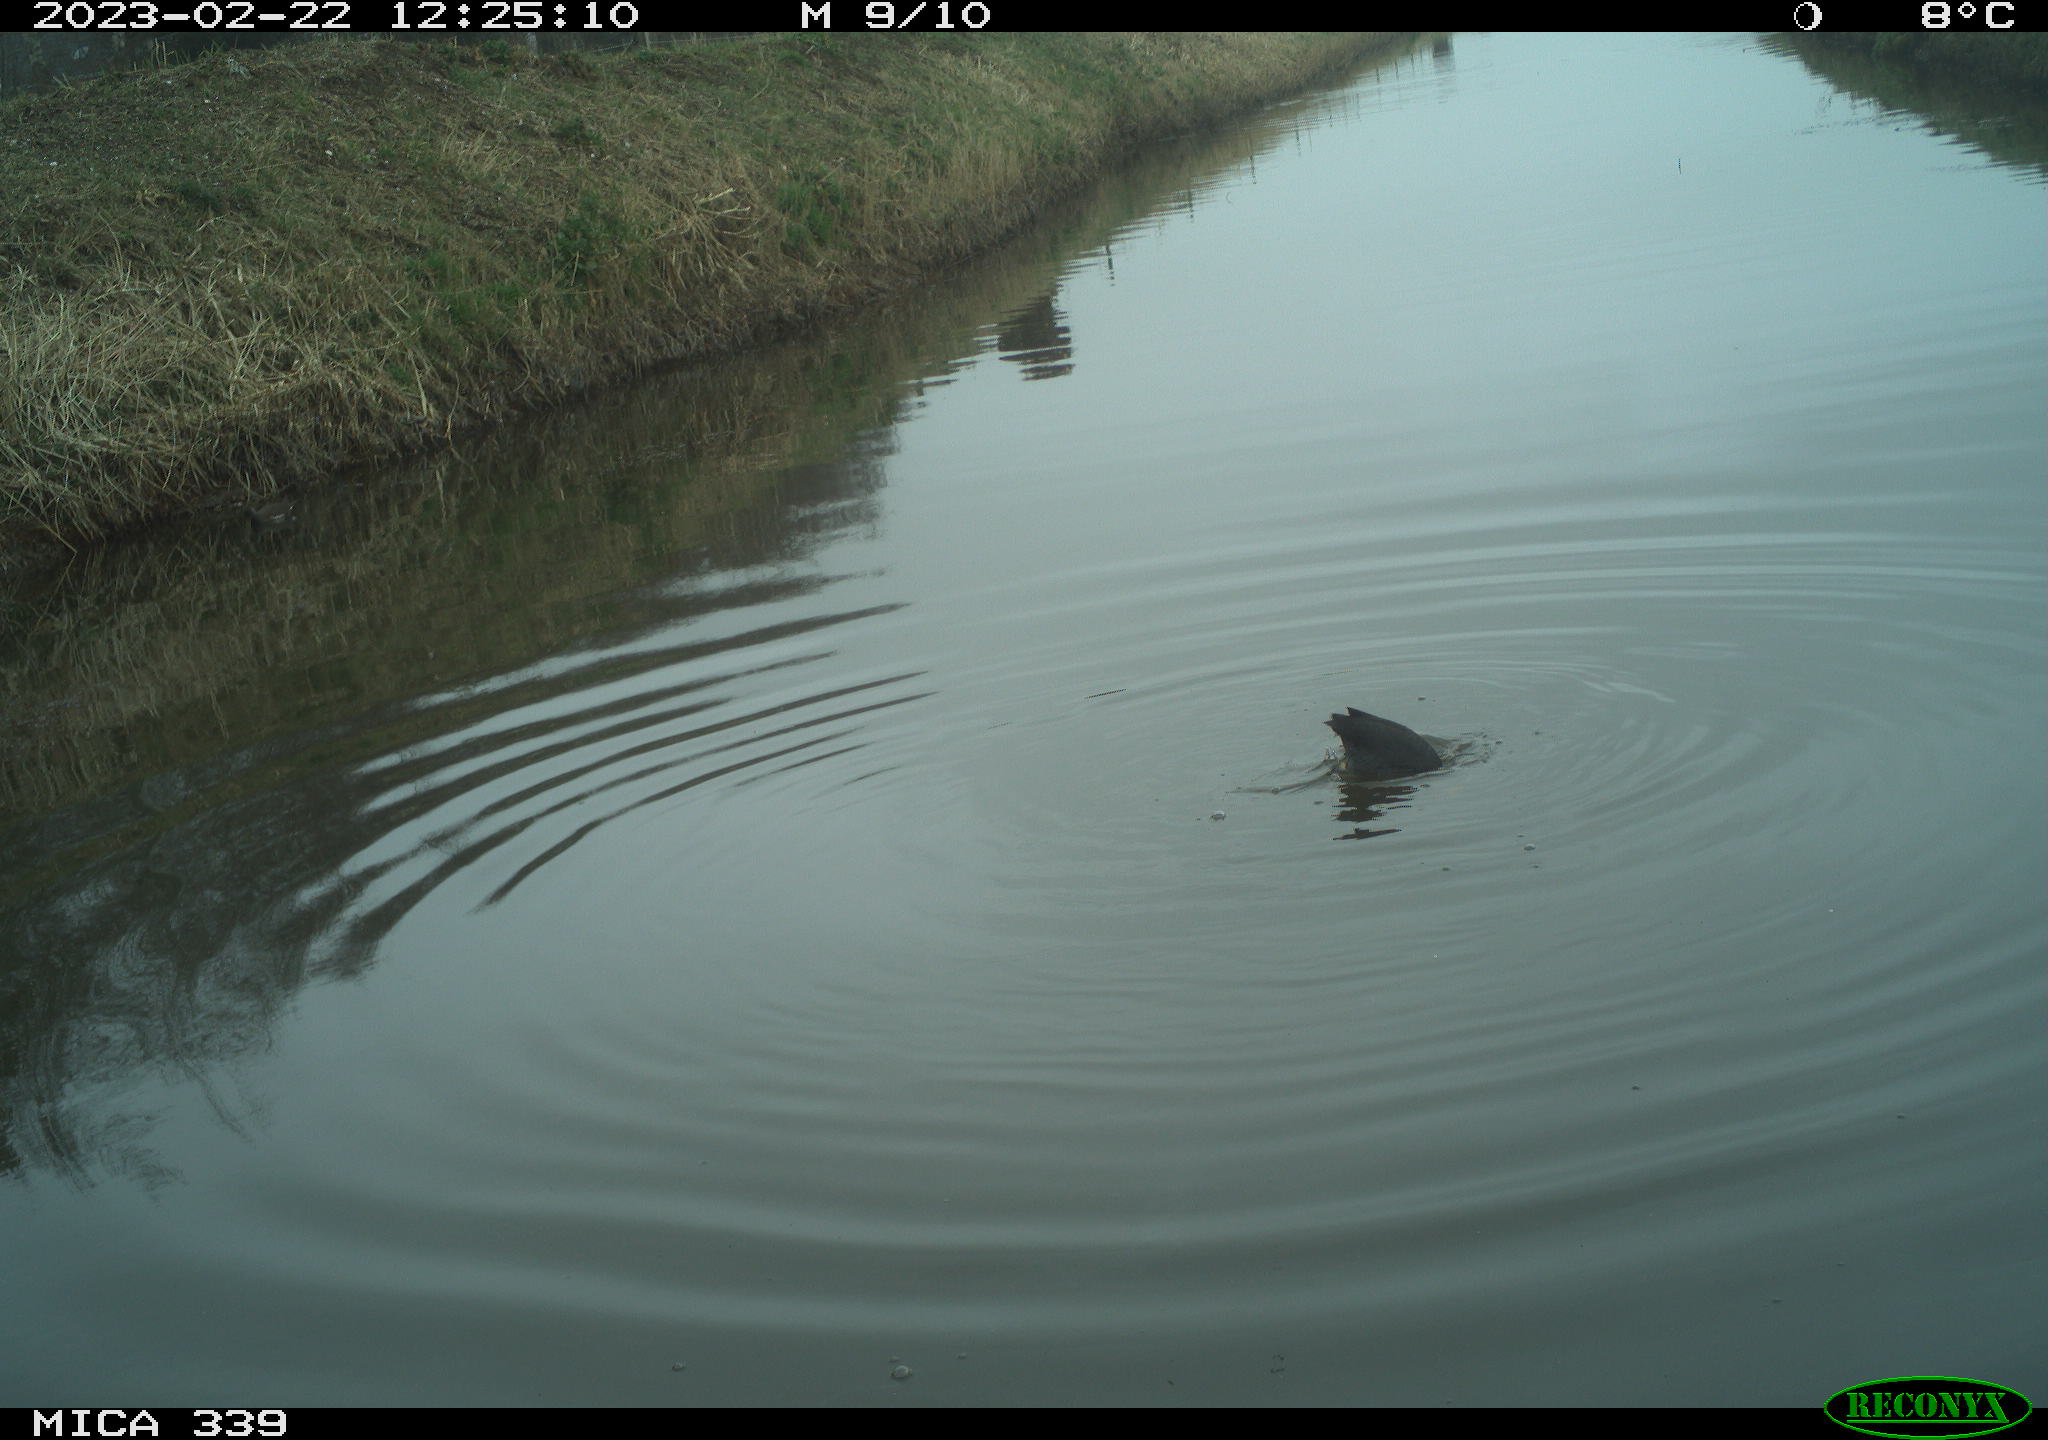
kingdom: Animalia
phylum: Chordata
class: Aves
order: Gruiformes
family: Rallidae
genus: Fulica
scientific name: Fulica atra
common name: Eurasian coot
